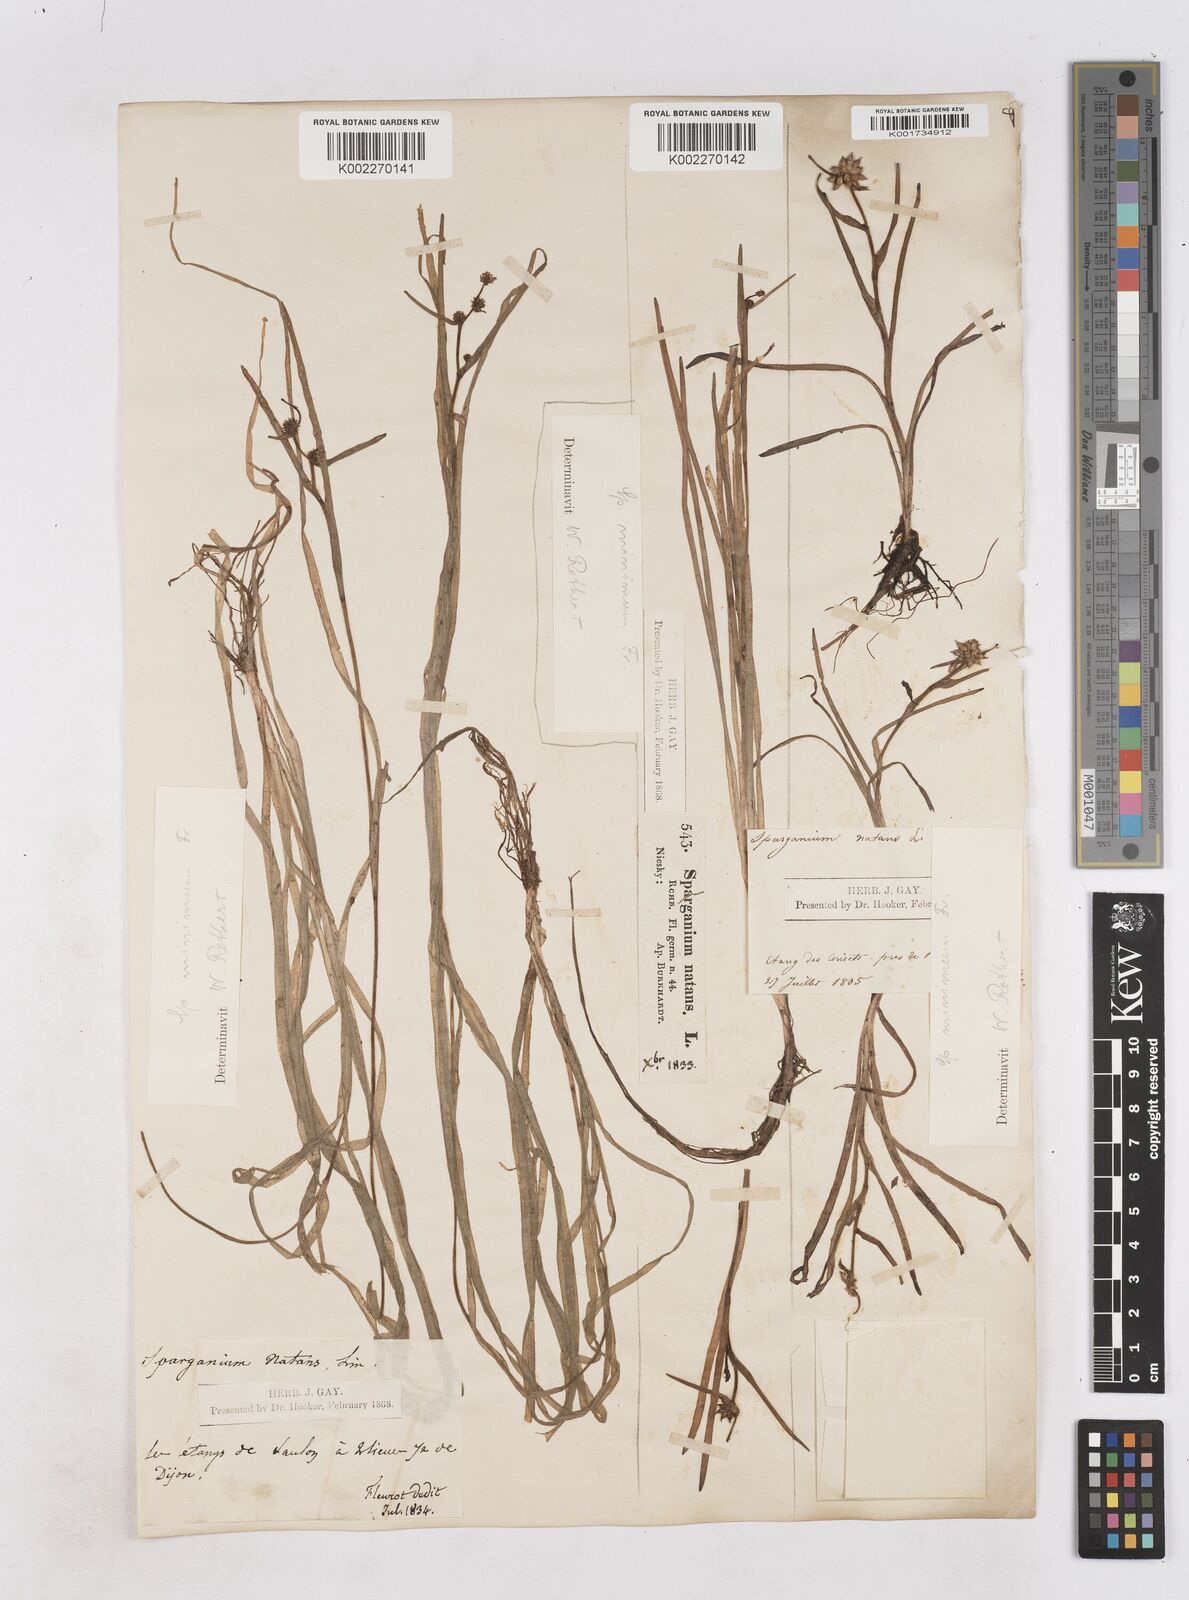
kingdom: Plantae
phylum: Tracheophyta
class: Liliopsida
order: Poales
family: Typhaceae
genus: Sparganium
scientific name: Sparganium natans
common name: Least bur-reed
